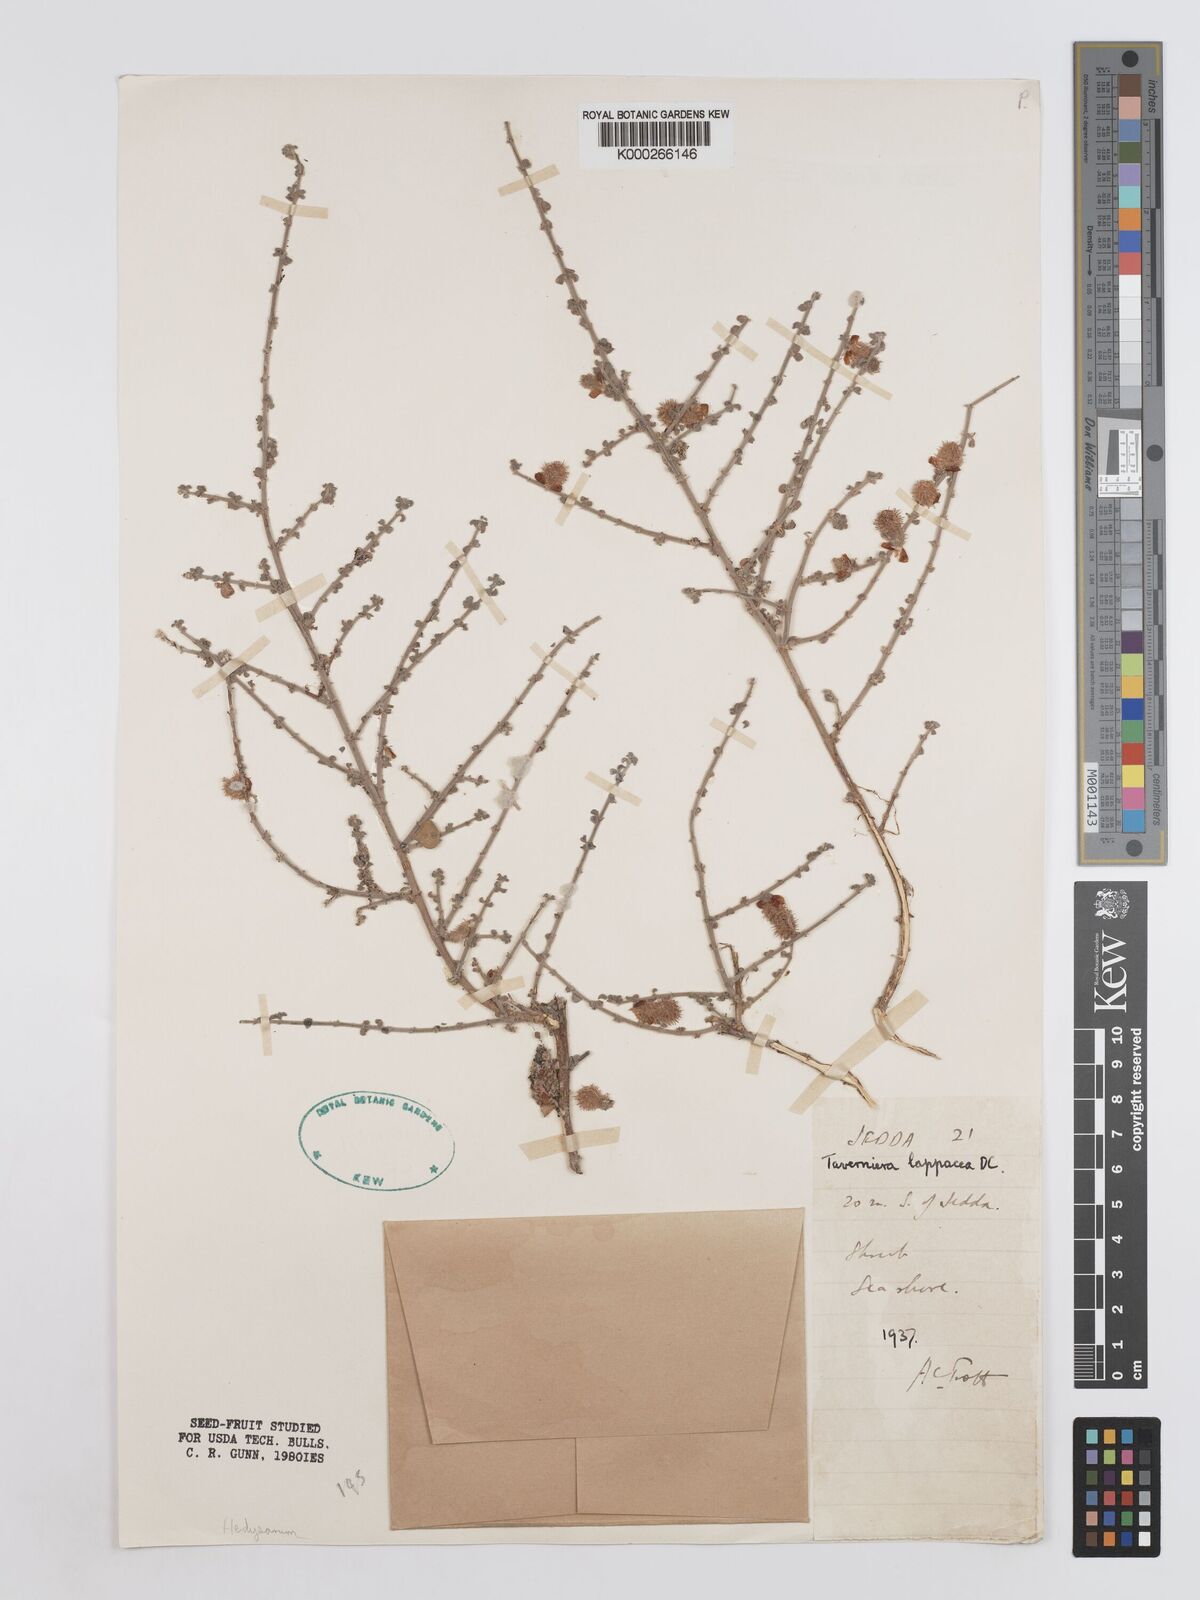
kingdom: Plantae
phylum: Tracheophyta
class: Magnoliopsida
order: Fabales
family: Fabaceae
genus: Taverniera
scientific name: Taverniera lappacea
